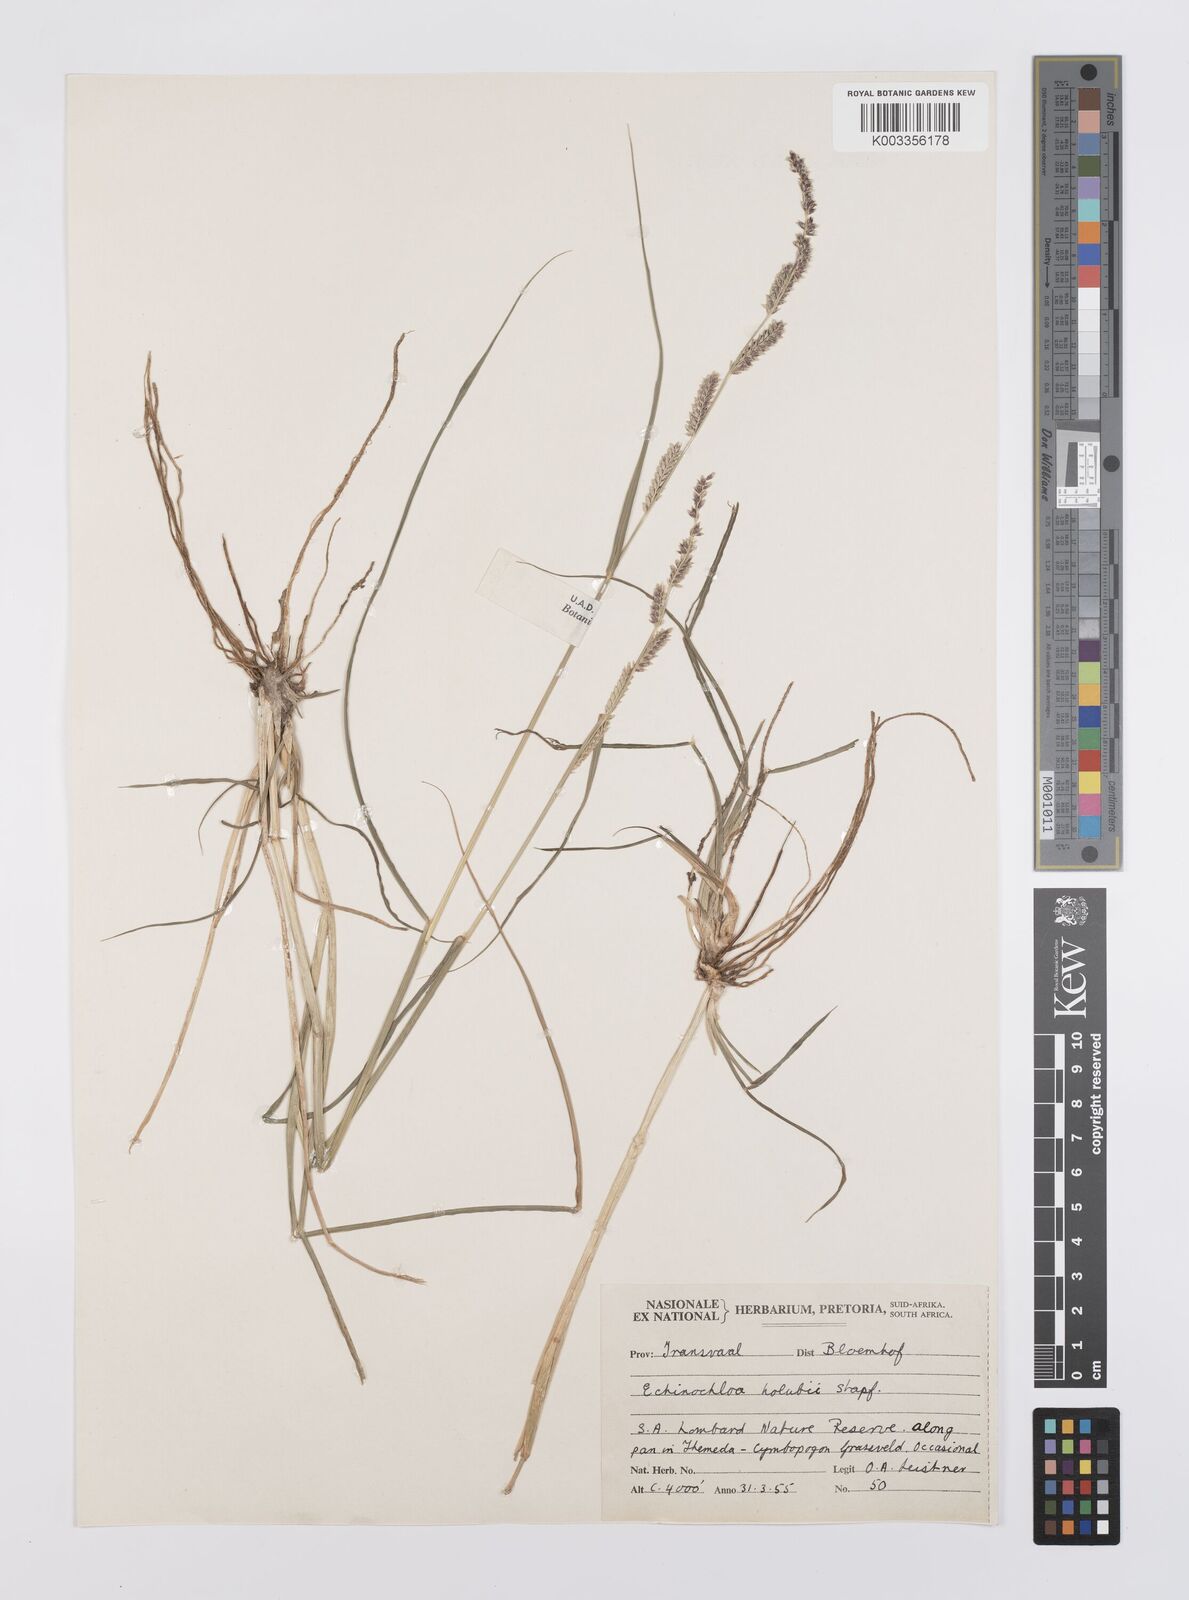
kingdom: Plantae
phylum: Tracheophyta
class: Liliopsida
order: Poales
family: Poaceae
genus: Echinochloa
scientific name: Echinochloa ugandensis
